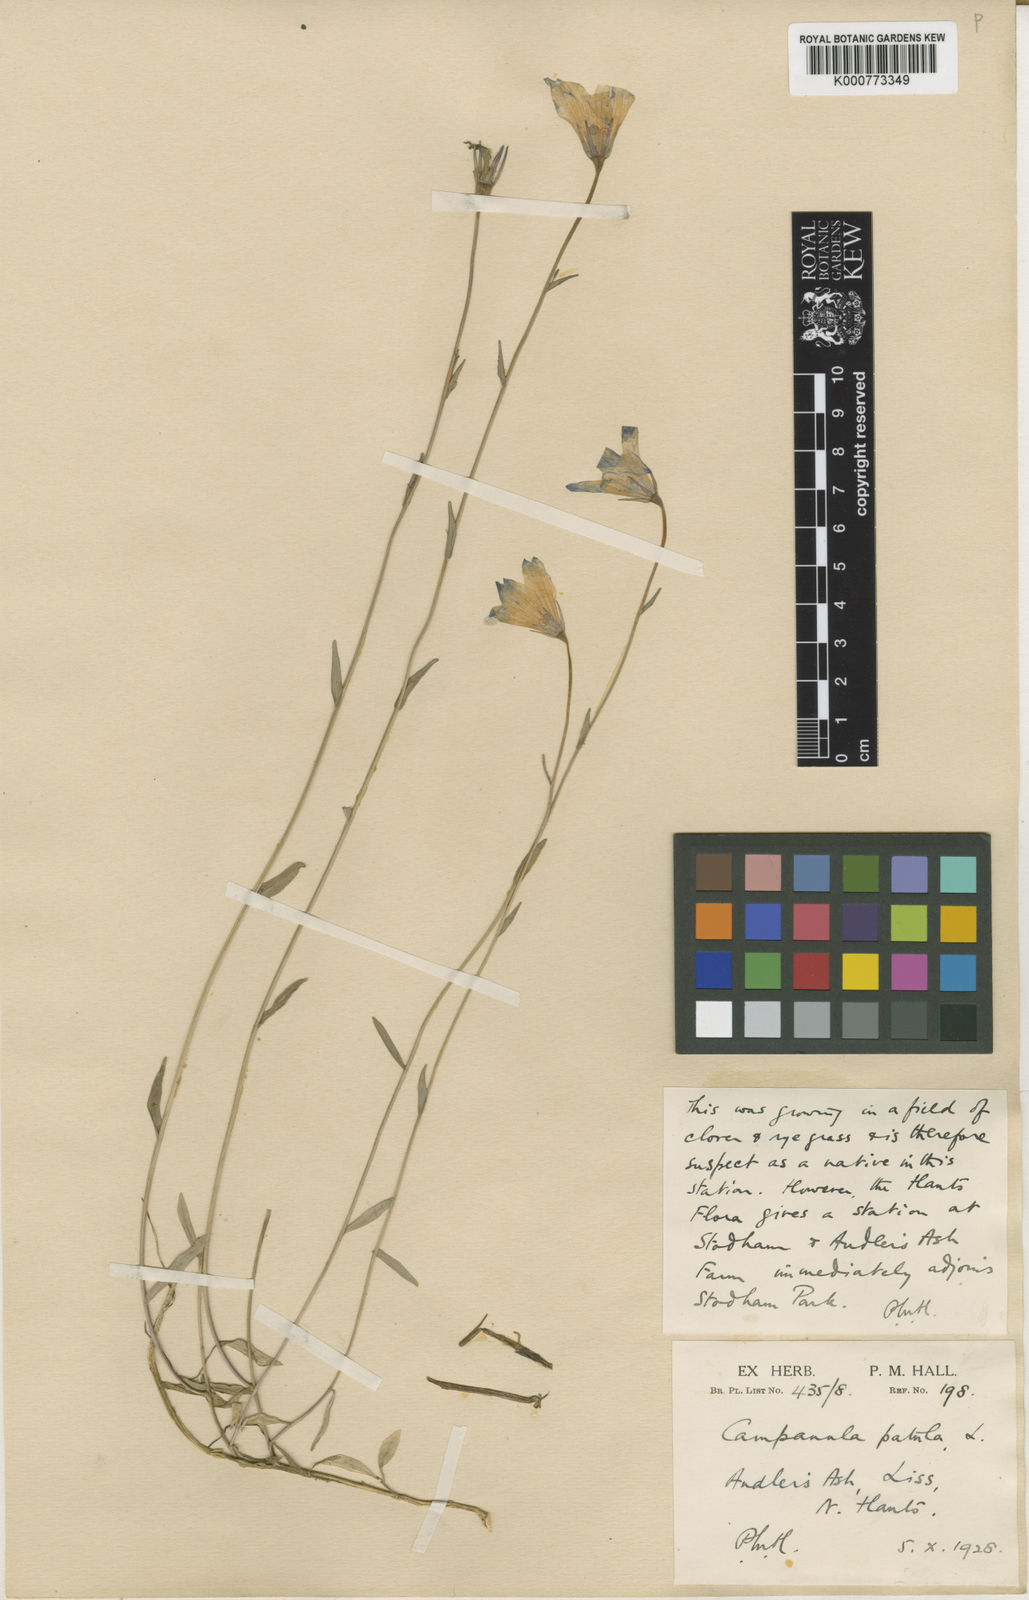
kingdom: Plantae
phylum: Tracheophyta
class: Magnoliopsida
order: Asterales
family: Campanulaceae
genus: Campanula
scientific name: Campanula patula
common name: Spreading bellflower
